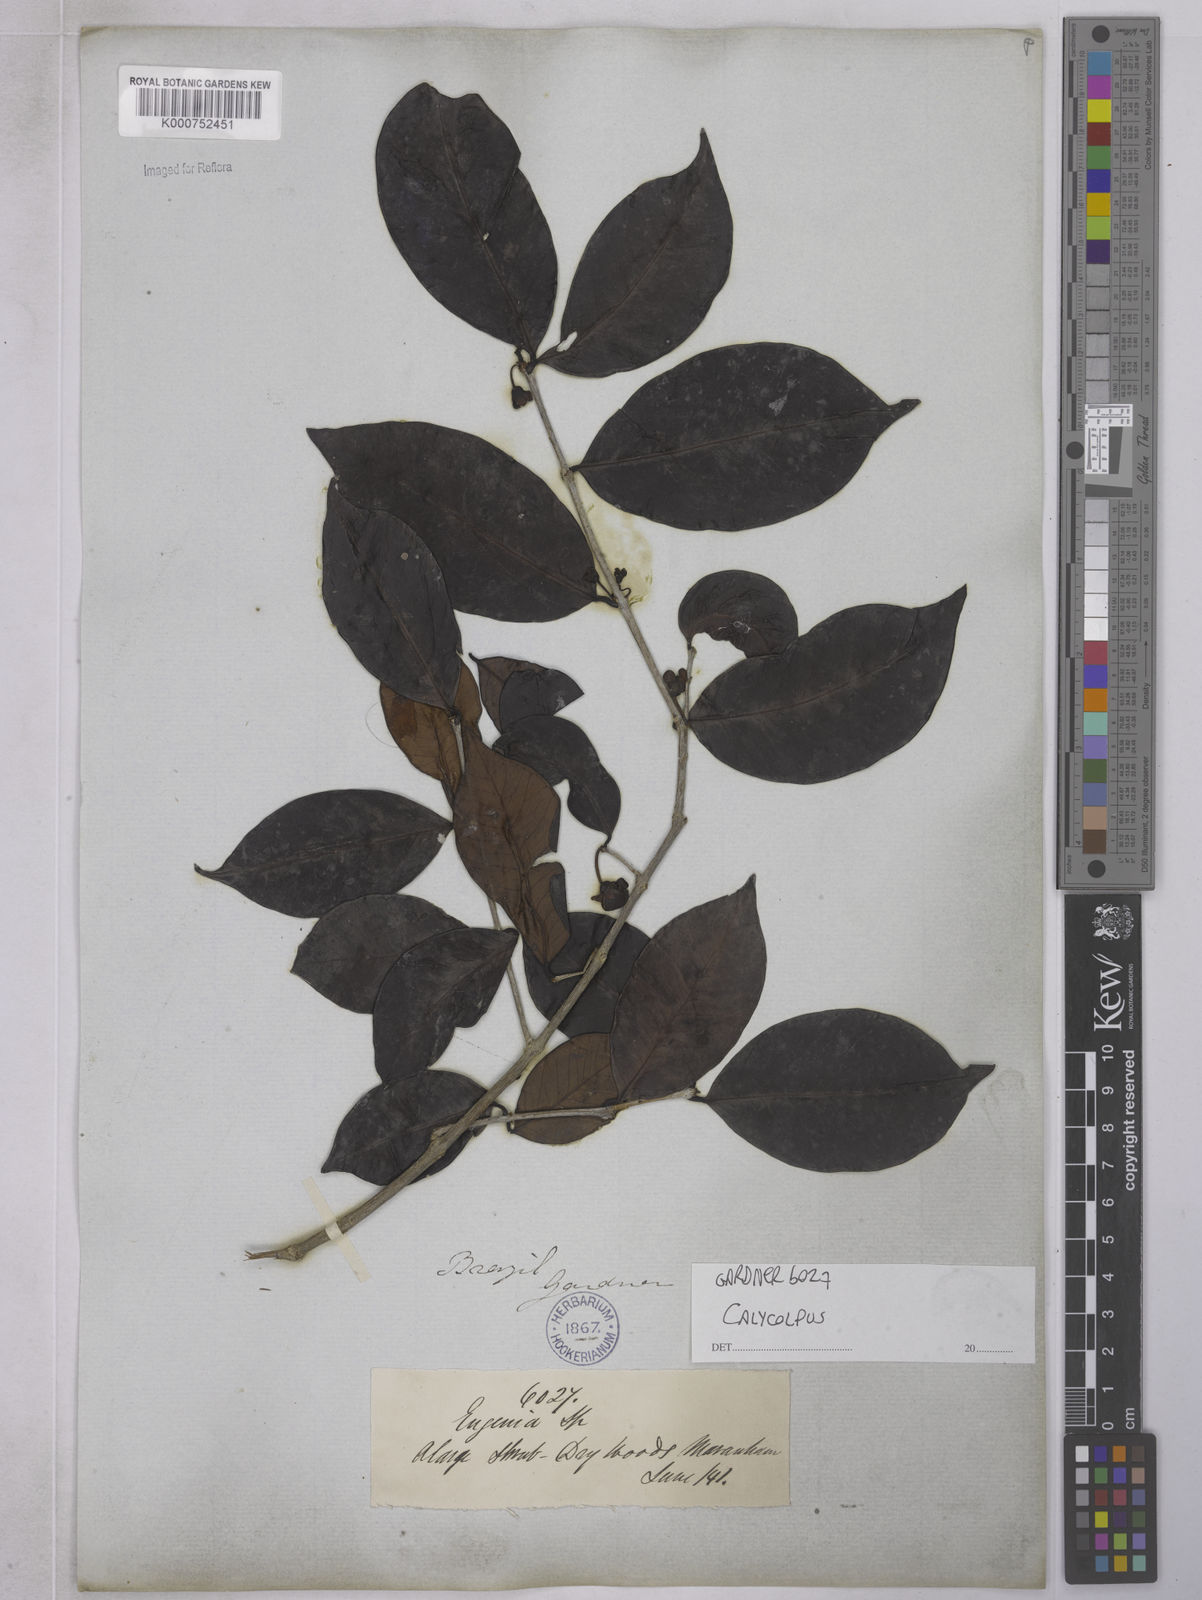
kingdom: Plantae
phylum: Tracheophyta
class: Magnoliopsida
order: Myrtales
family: Myrtaceae
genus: Calycolpus
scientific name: Calycolpus
